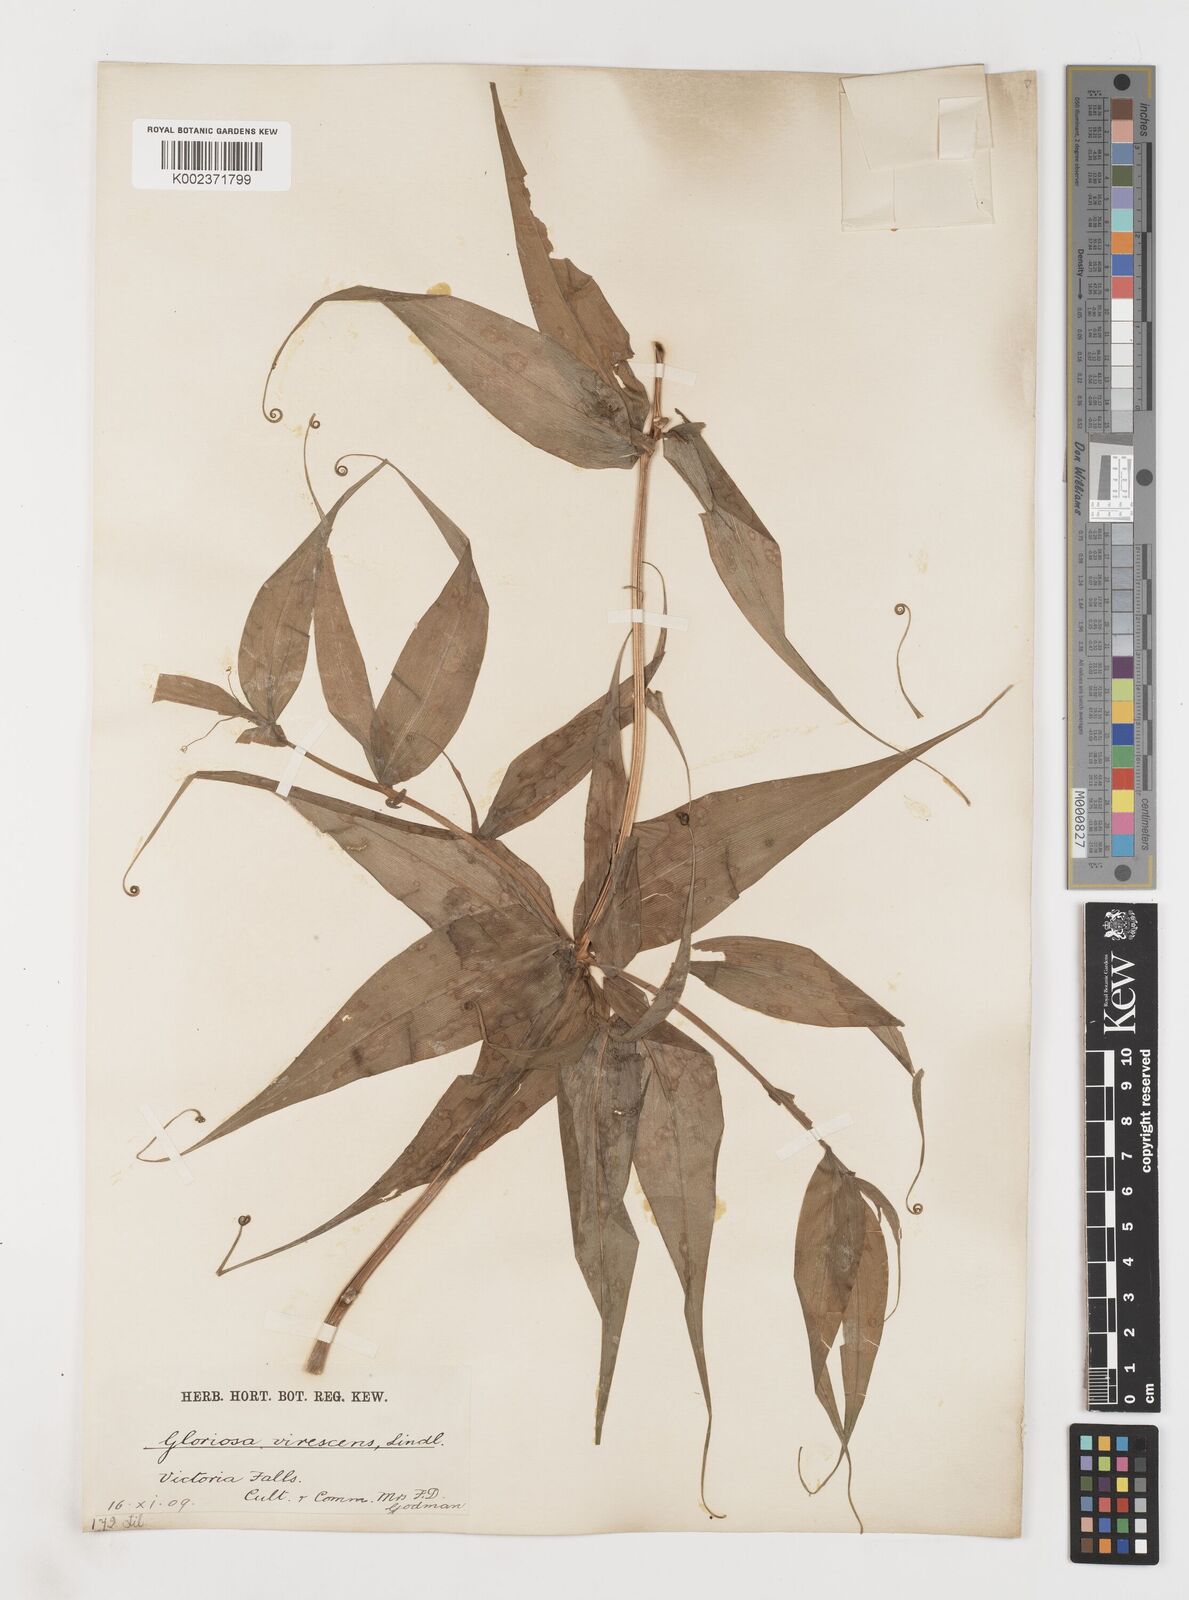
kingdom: Plantae
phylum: Tracheophyta
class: Liliopsida
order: Liliales
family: Colchicaceae
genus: Gloriosa
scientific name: Gloriosa simplex
